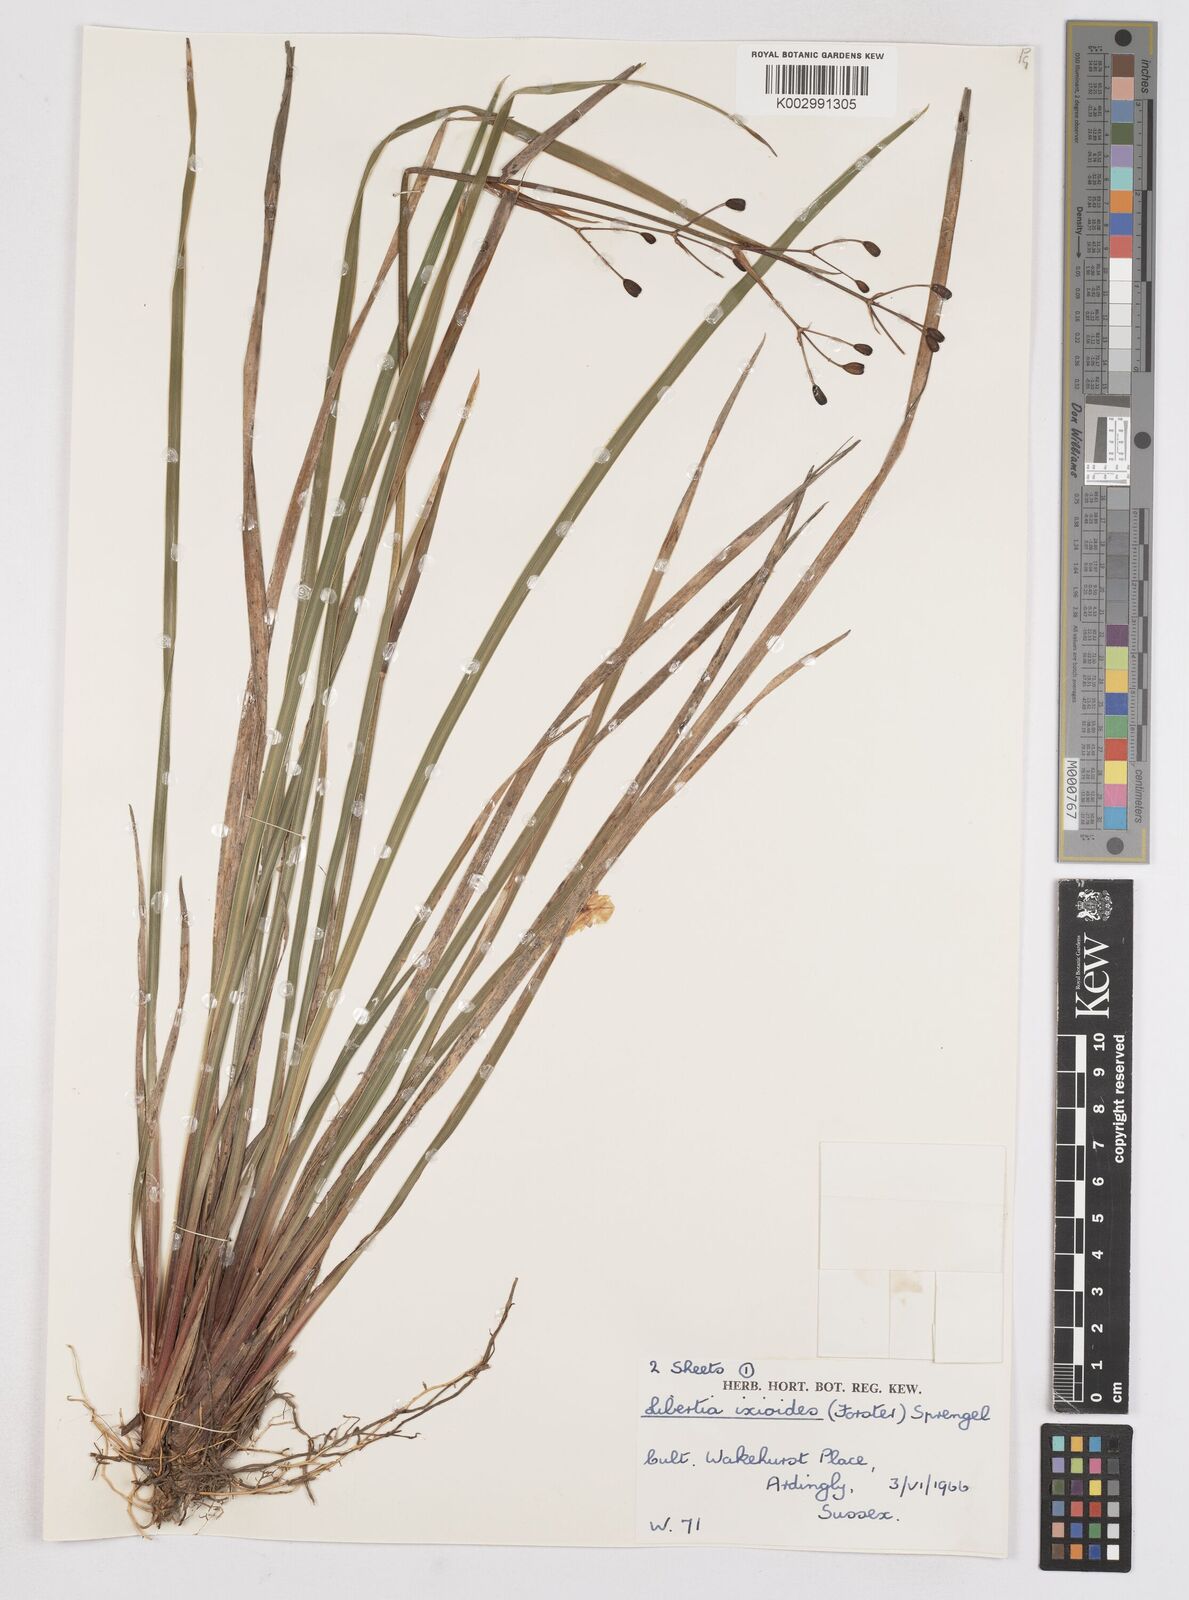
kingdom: Plantae
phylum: Tracheophyta
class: Liliopsida
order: Asparagales
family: Iridaceae
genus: Libertia
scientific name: Libertia ixioides
